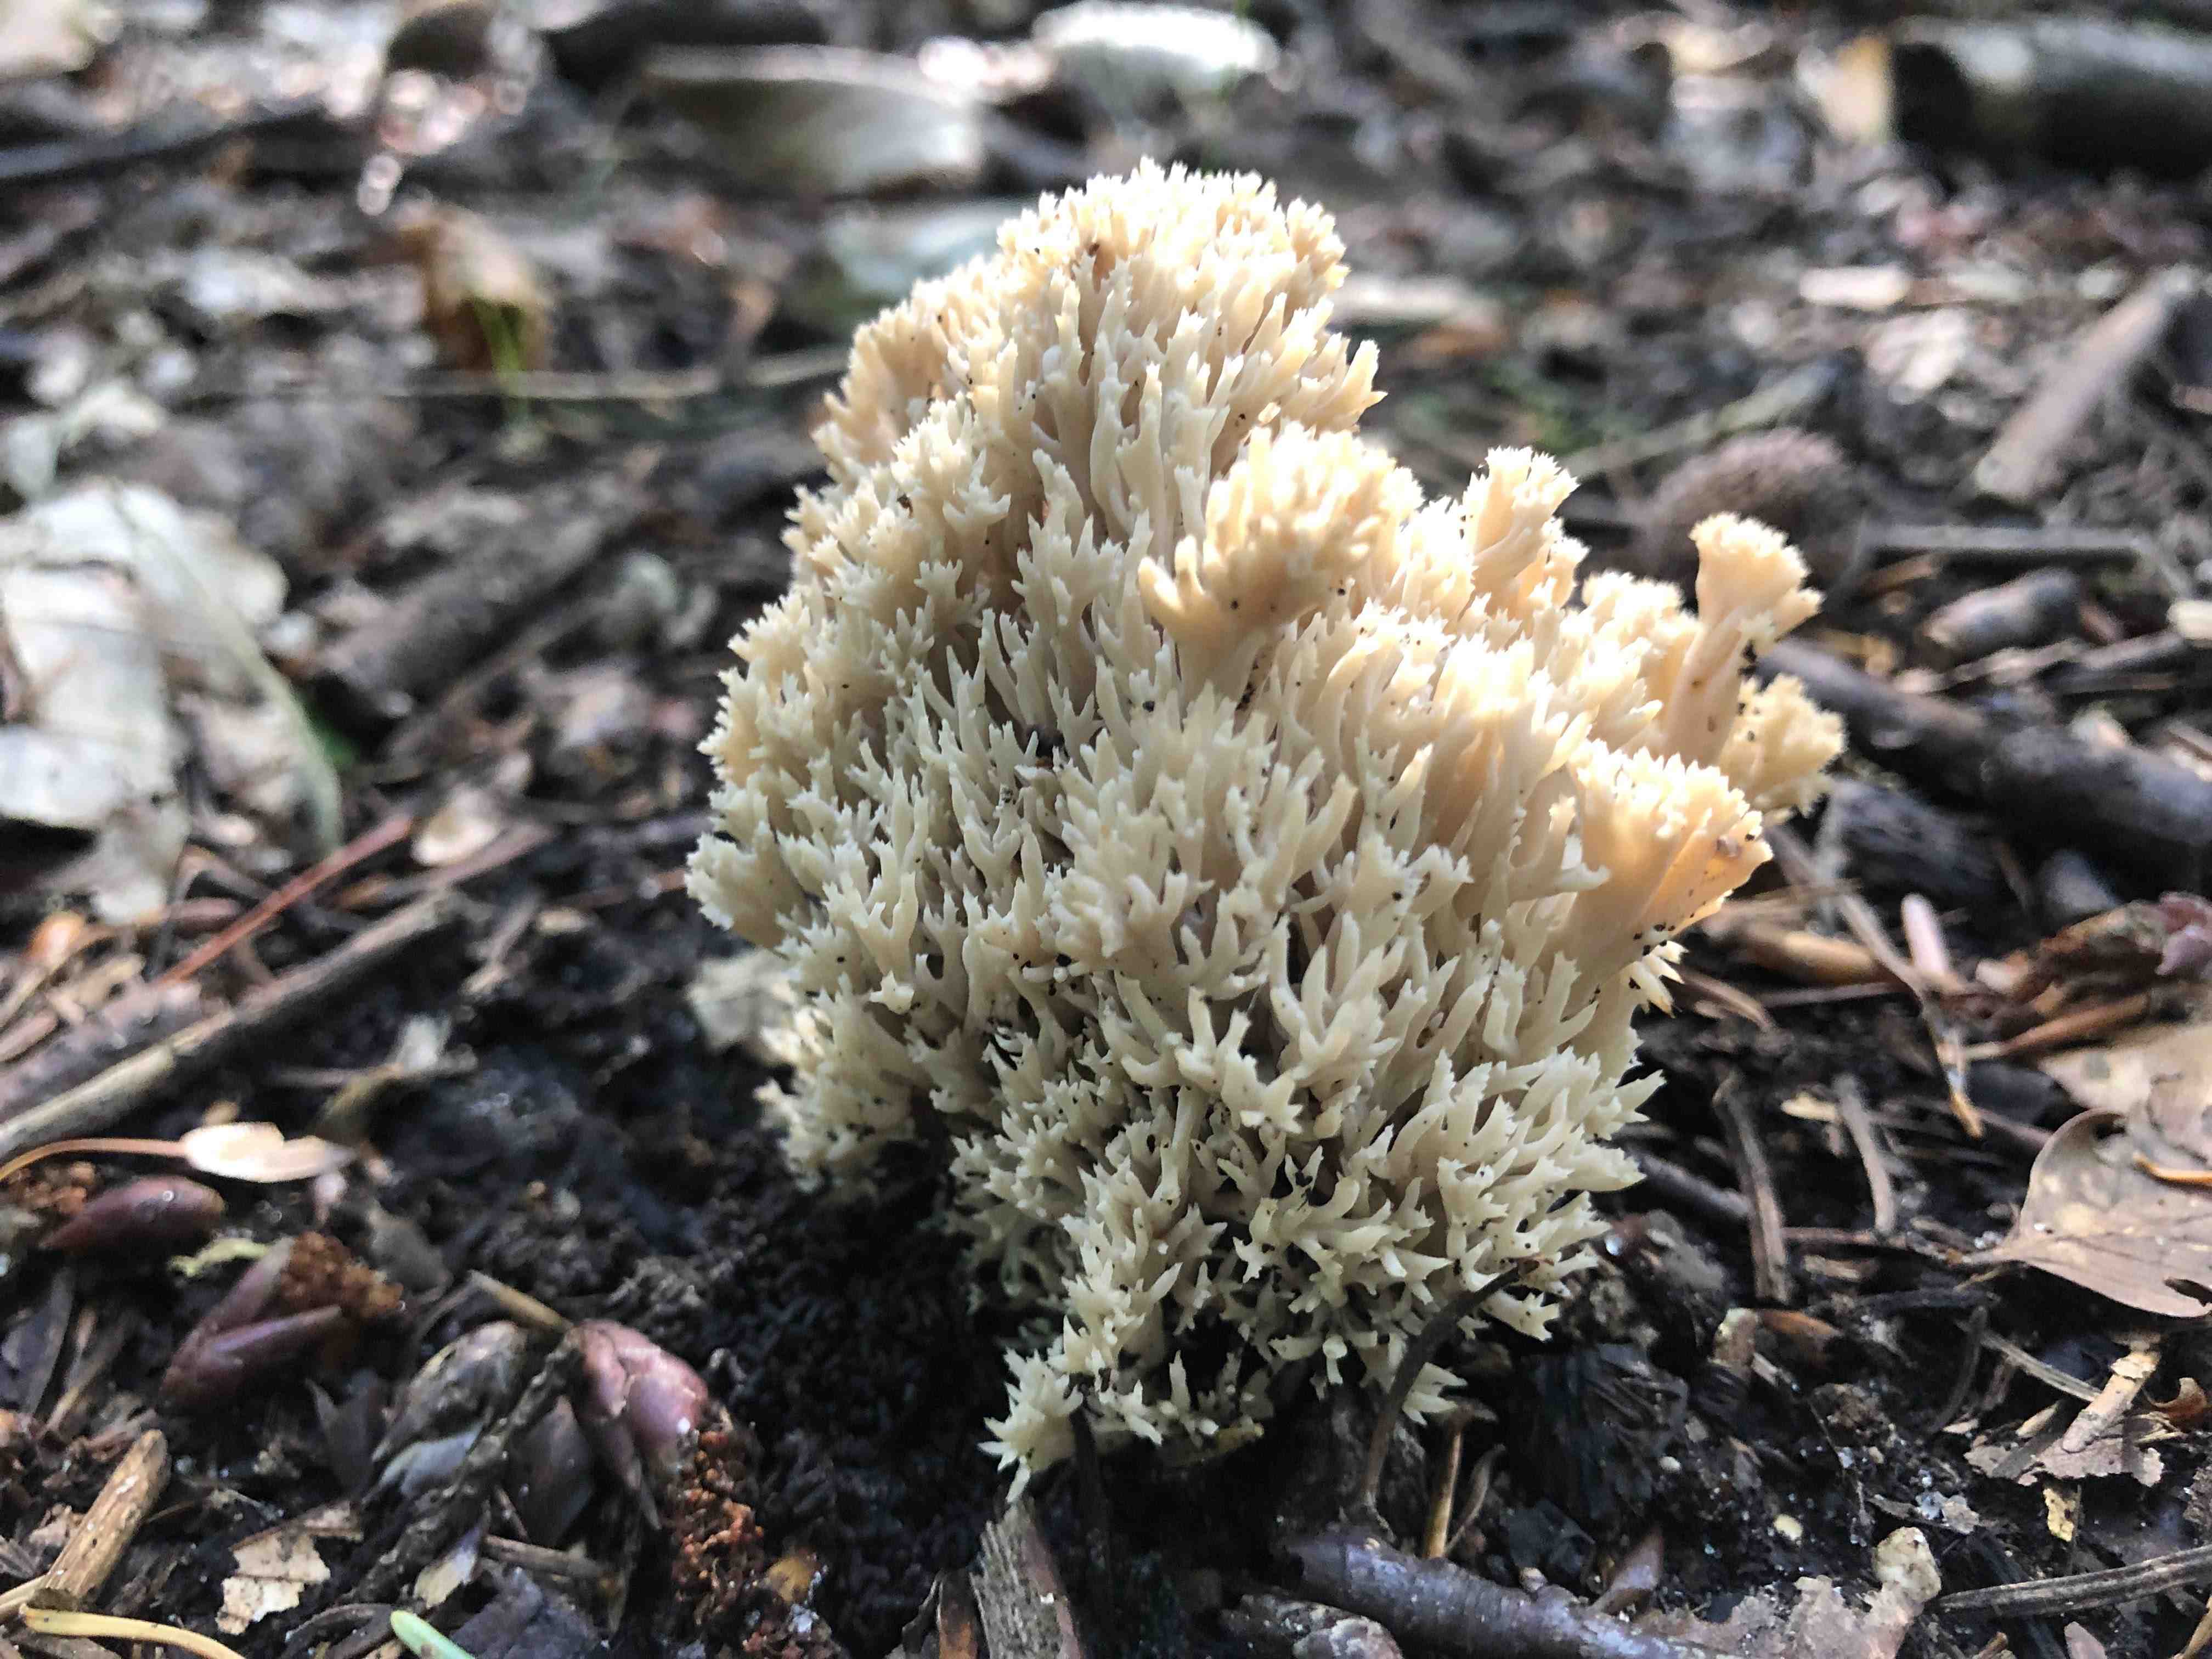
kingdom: Fungi
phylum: Basidiomycota
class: Agaricomycetes
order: Gomphales
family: Gomphaceae
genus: Ramaria
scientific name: Ramaria stricta
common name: rank koralsvamp
